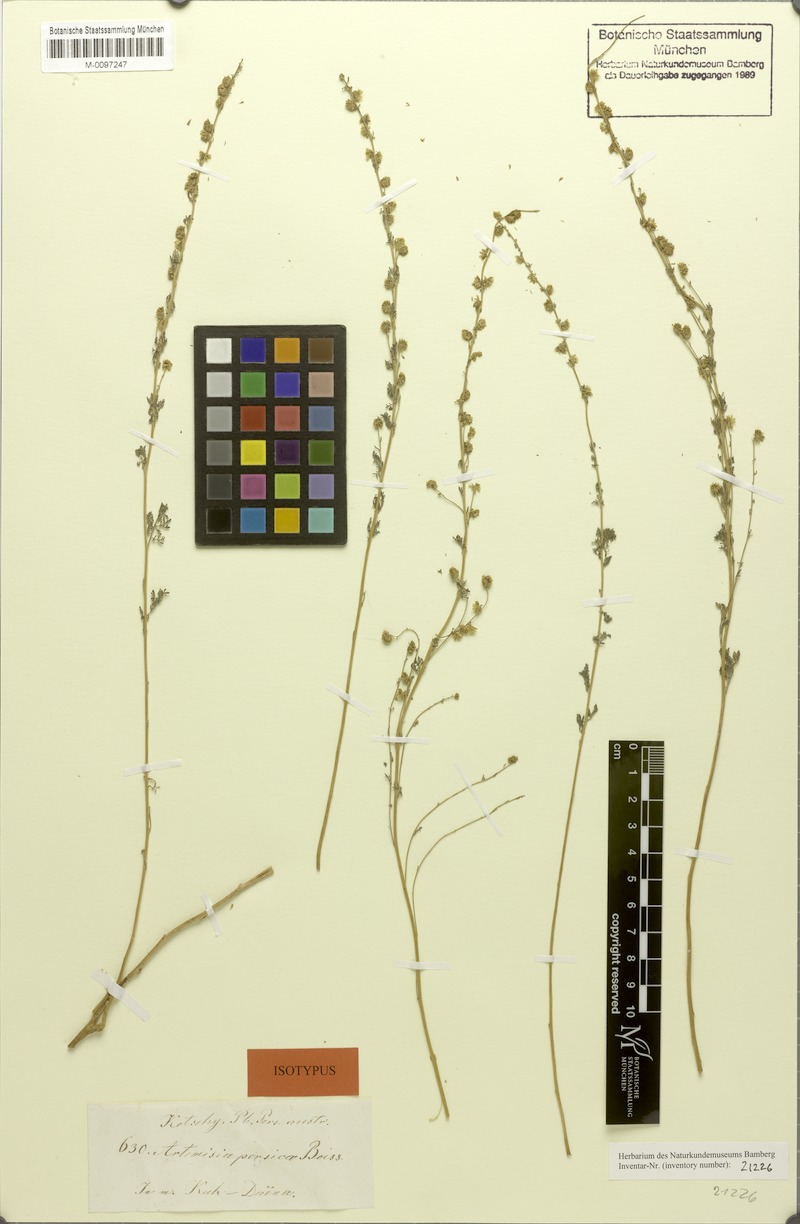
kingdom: Plantae
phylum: Tracheophyta
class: Magnoliopsida
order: Asterales
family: Asteraceae
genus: Artemisia
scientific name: Artemisia persica
